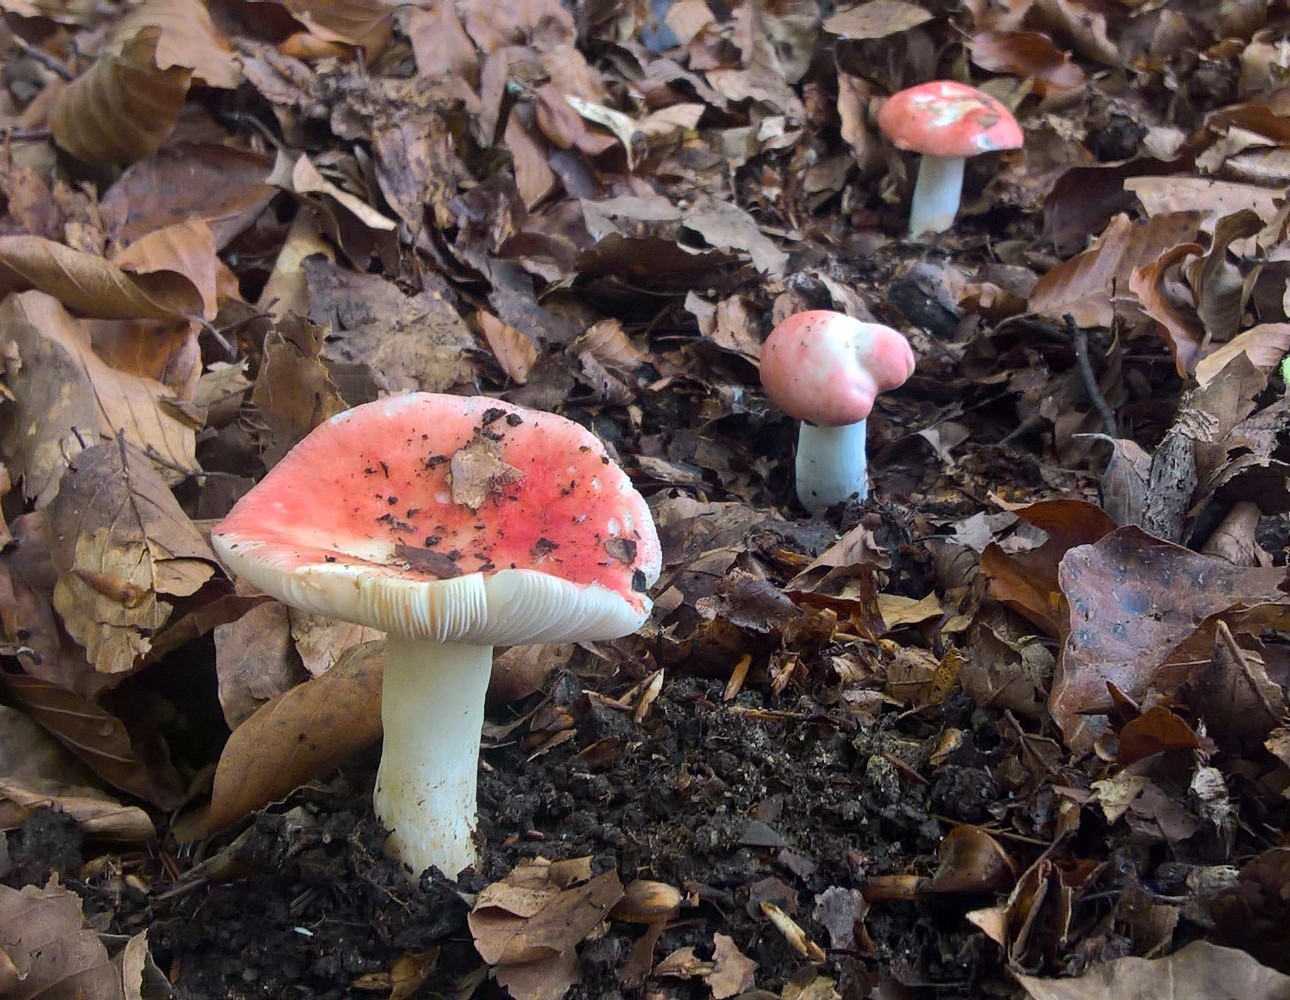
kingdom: Fungi
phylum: Basidiomycota
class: Agaricomycetes
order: Russulales
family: Russulaceae
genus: Russula
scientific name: Russula nobilis
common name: lille gift-skørhat
